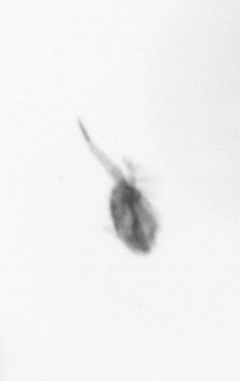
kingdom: Animalia
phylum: Arthropoda
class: Copepoda
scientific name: Copepoda
